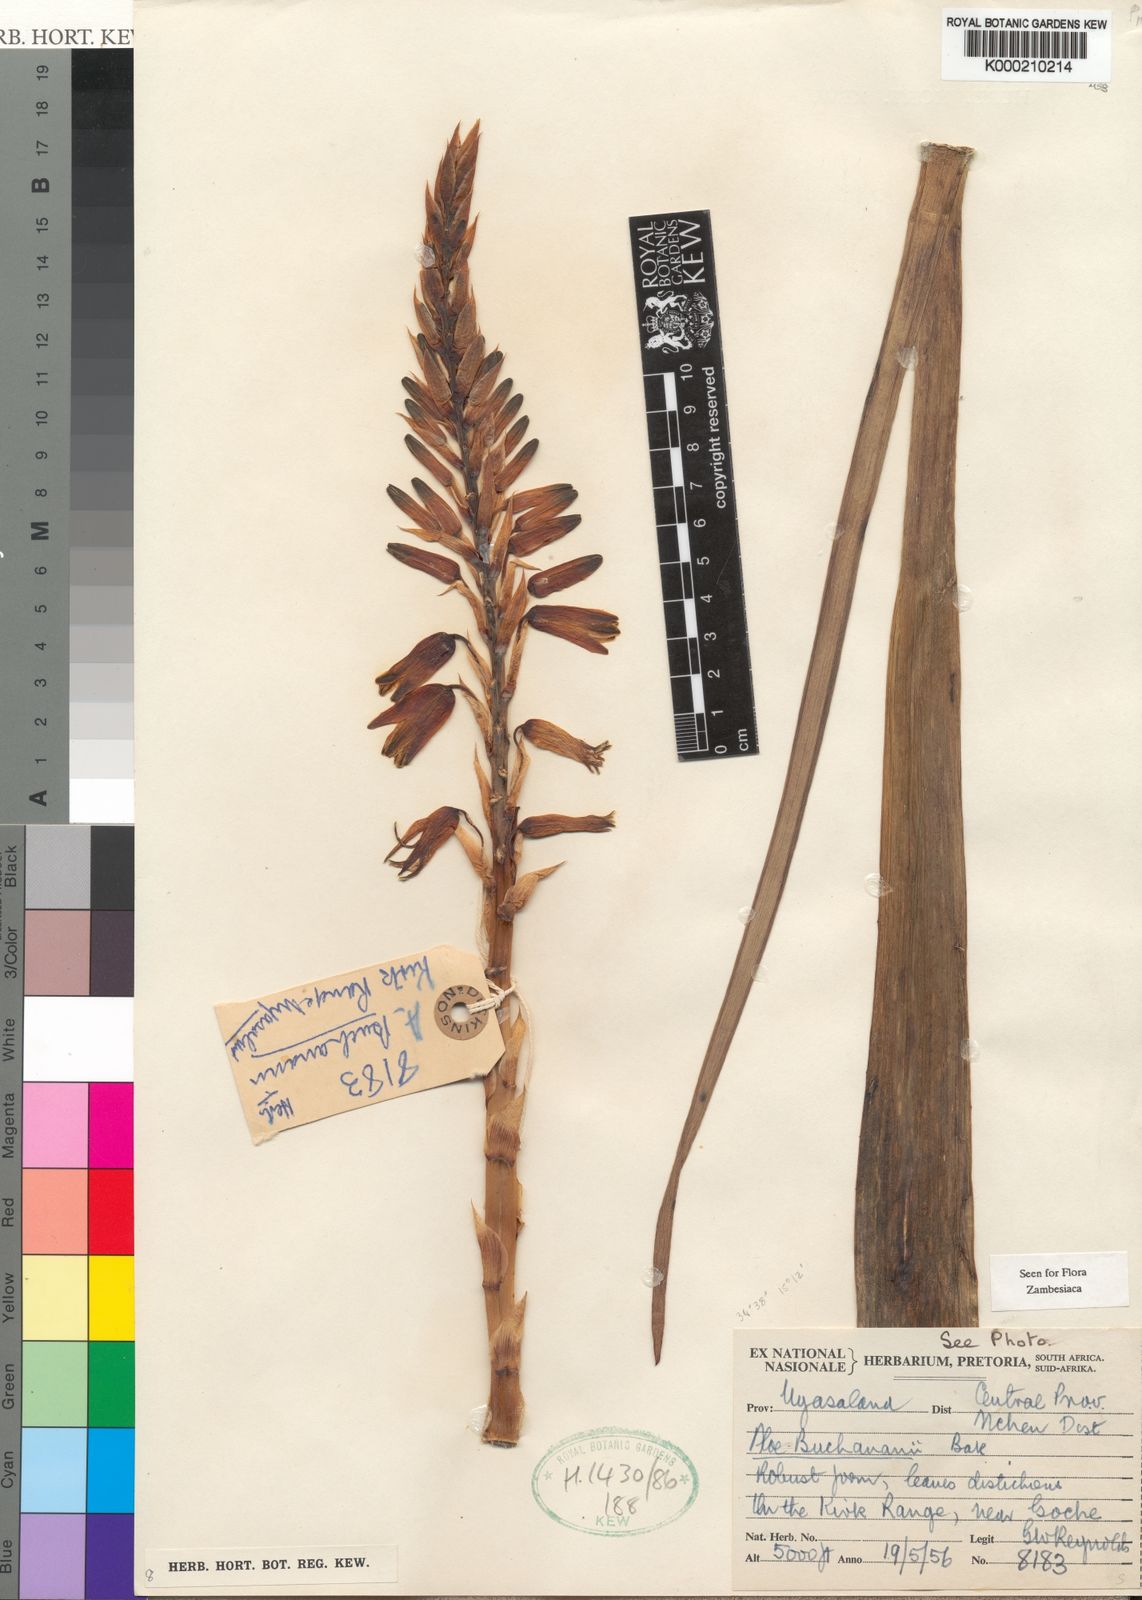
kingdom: Plantae
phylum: Tracheophyta
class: Liliopsida
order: Asparagales
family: Asphodelaceae
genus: Aloe
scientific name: Aloe buchananii
